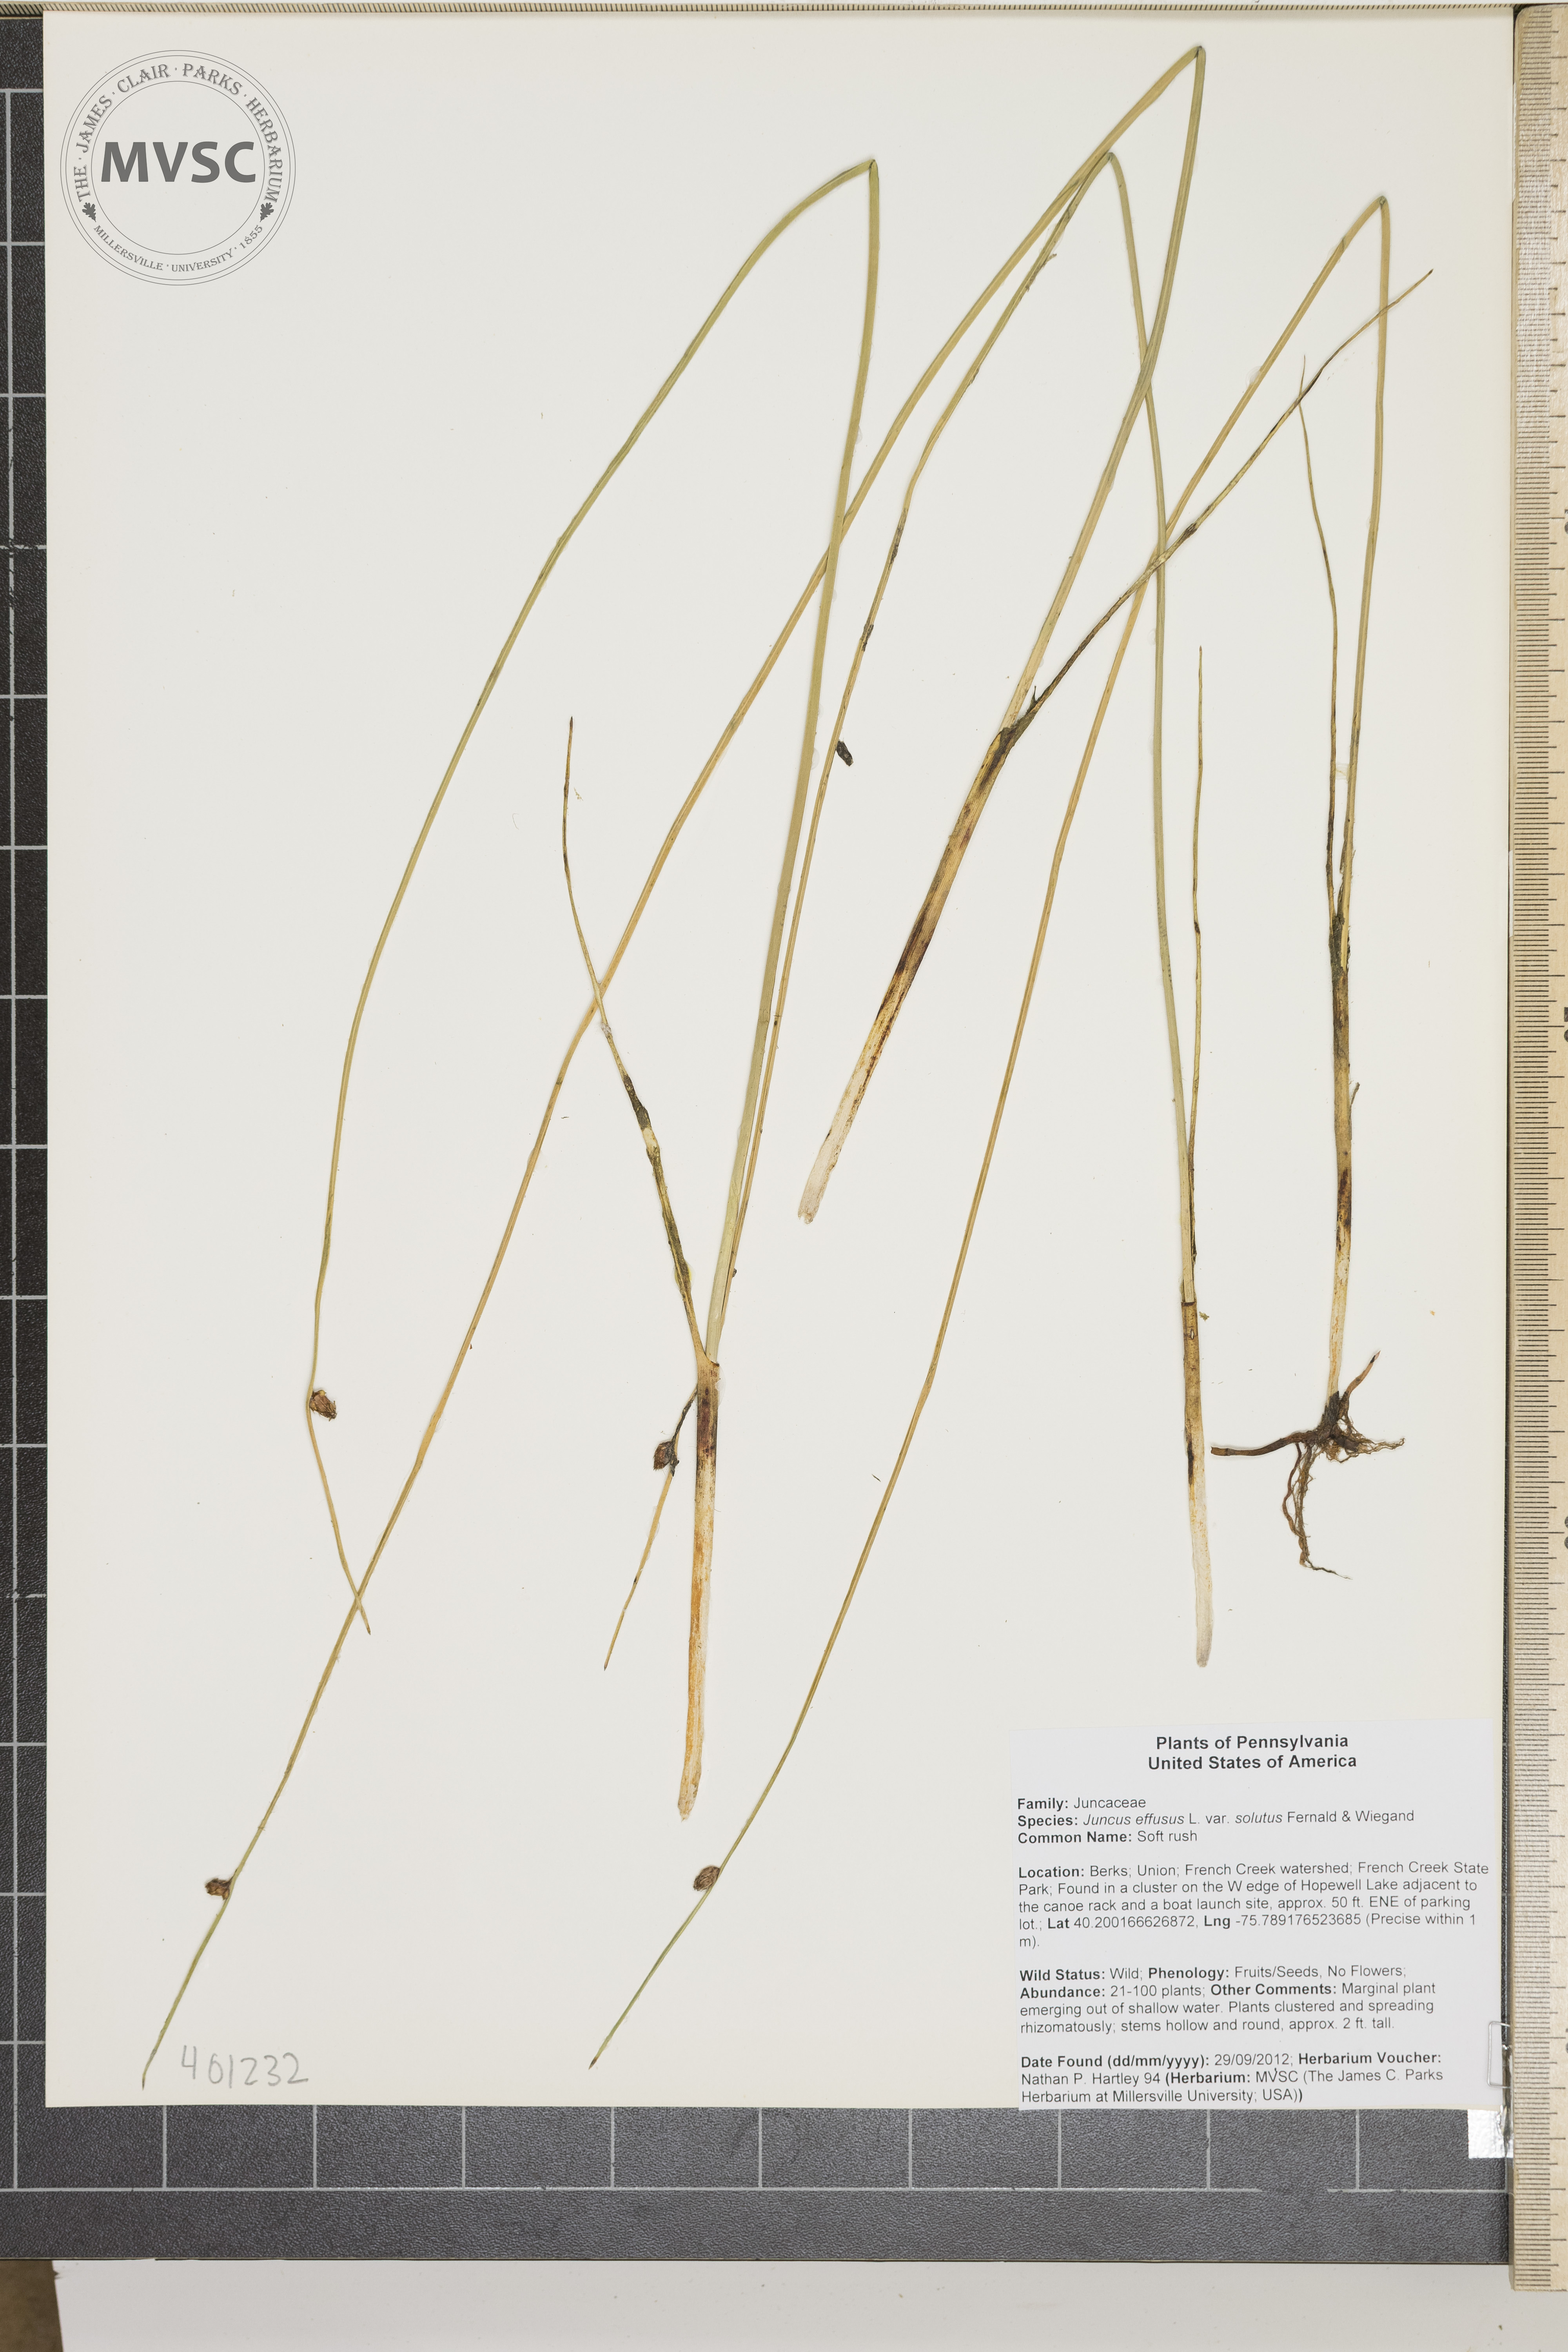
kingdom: Plantae
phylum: Tracheophyta
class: Liliopsida
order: Poales
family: Cyperaceae
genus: Schoenoplectus
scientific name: Schoenoplectus torreyi
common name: Torrey's bulrush
